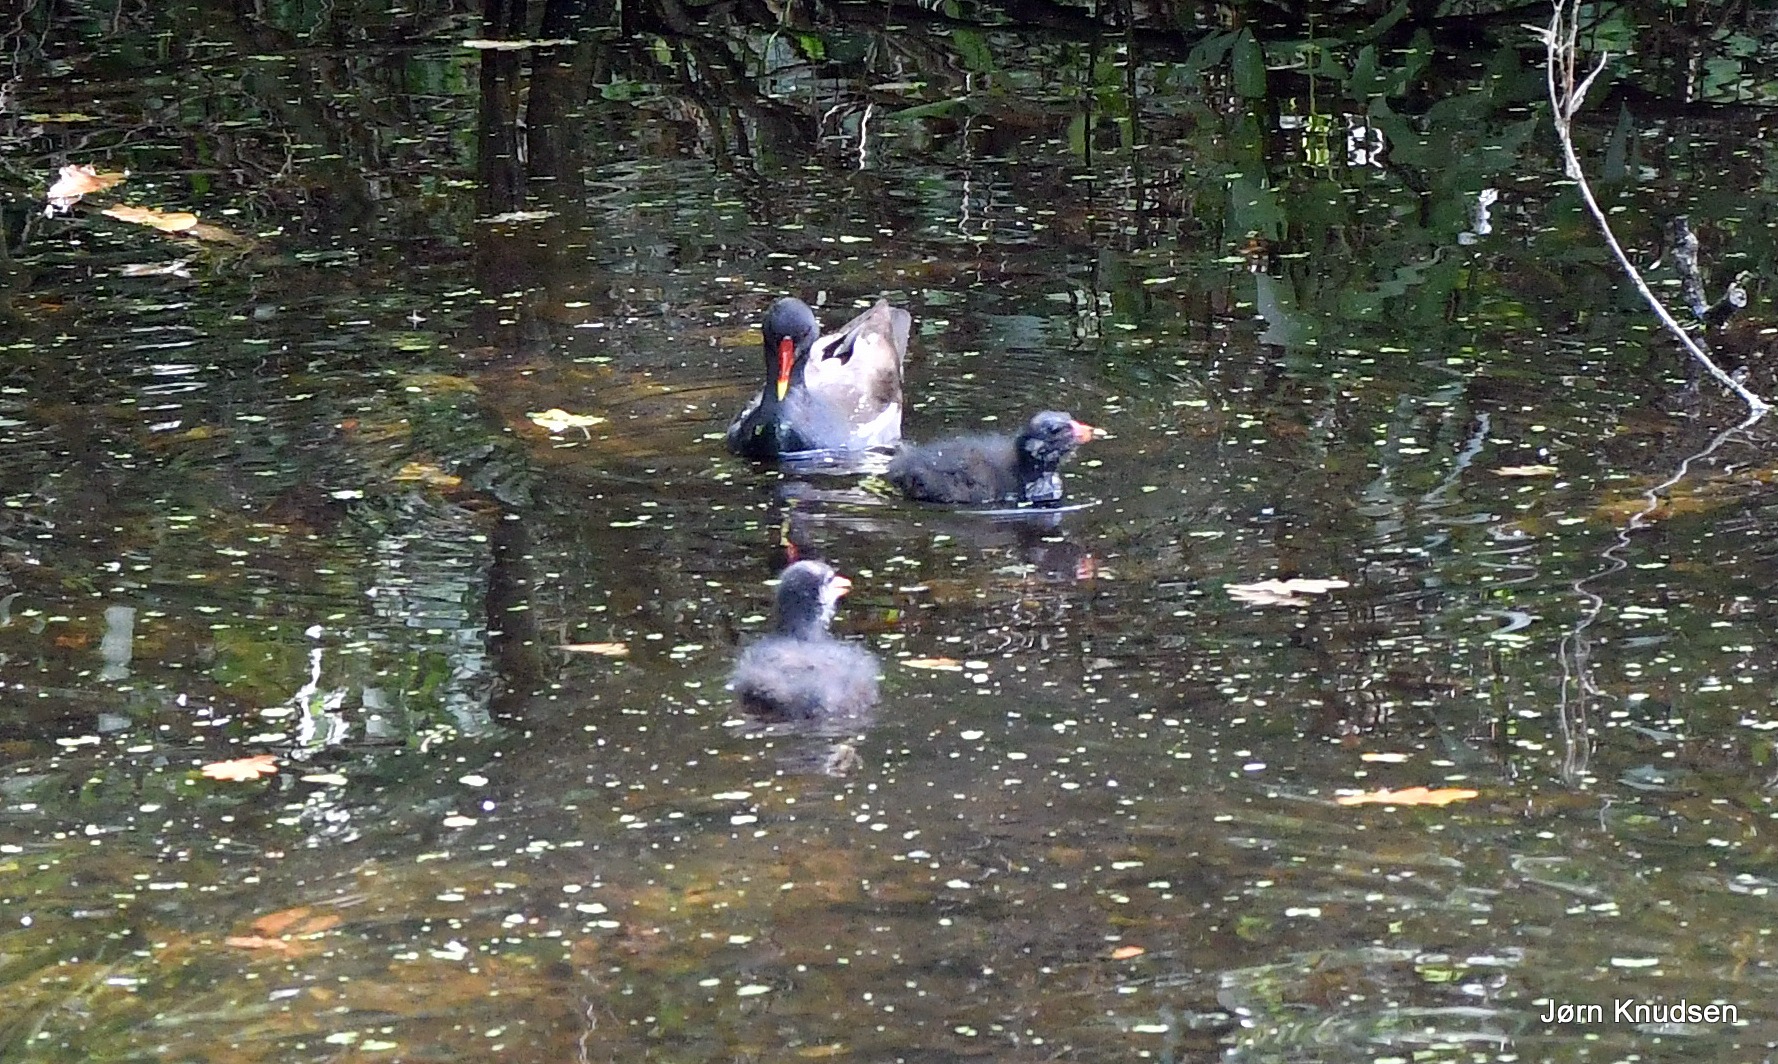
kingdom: Animalia
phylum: Chordata
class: Aves
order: Gruiformes
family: Rallidae
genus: Gallinula
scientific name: Gallinula chloropus
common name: Grønbenet rørhøne
